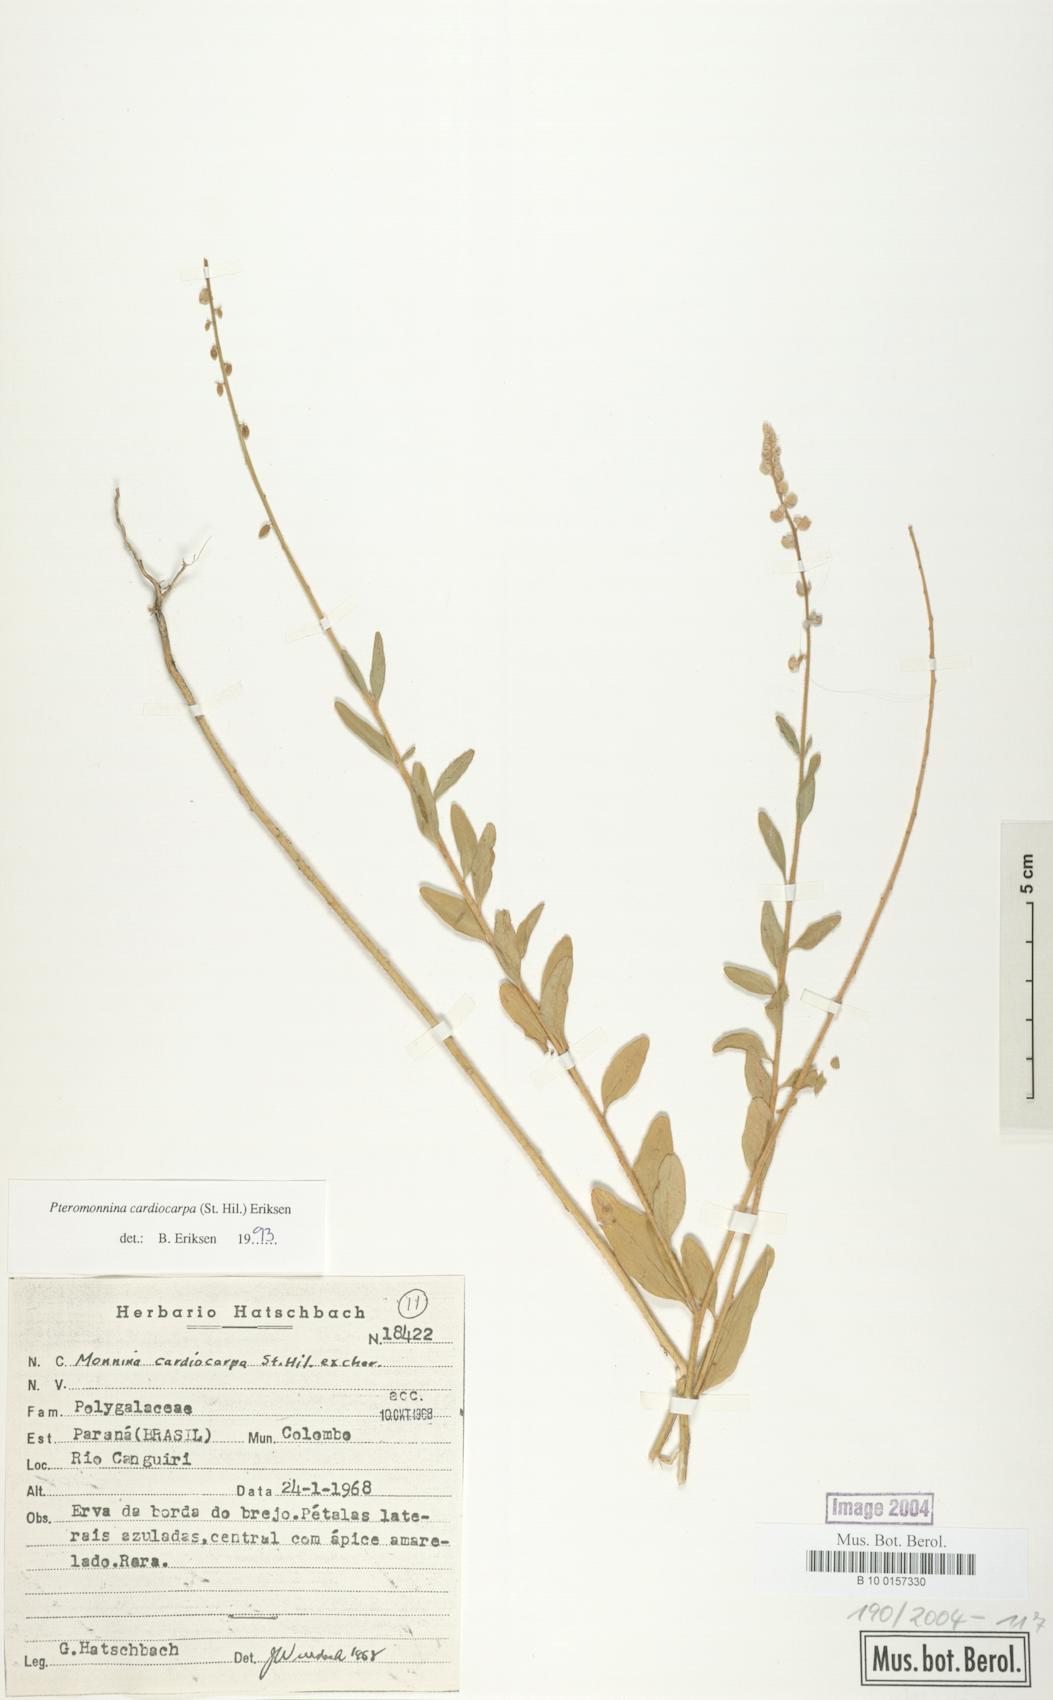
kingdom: Plantae
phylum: Tracheophyta
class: Magnoliopsida
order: Fabales
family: Polygalaceae
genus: Monnina
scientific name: Monnina cardiocarpa
